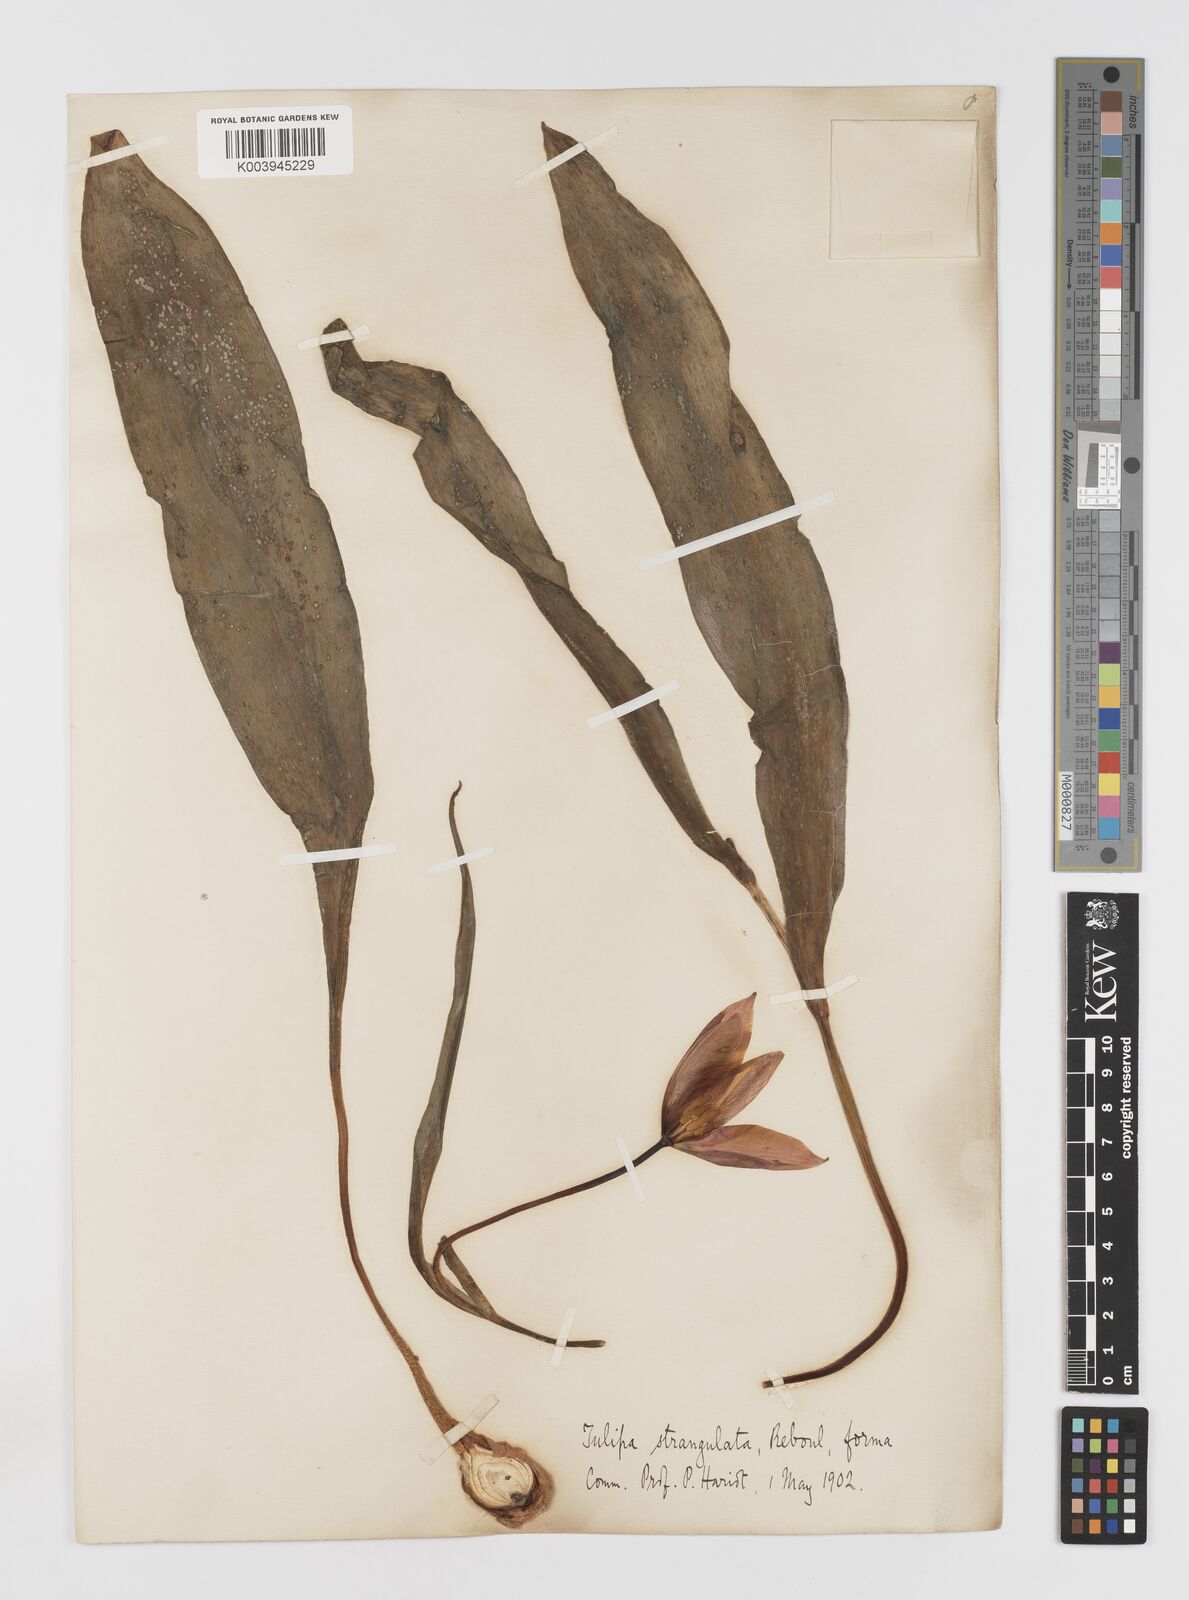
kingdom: Plantae
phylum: Tracheophyta
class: Liliopsida
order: Liliales
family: Liliaceae
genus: Tulipa
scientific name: Tulipa
